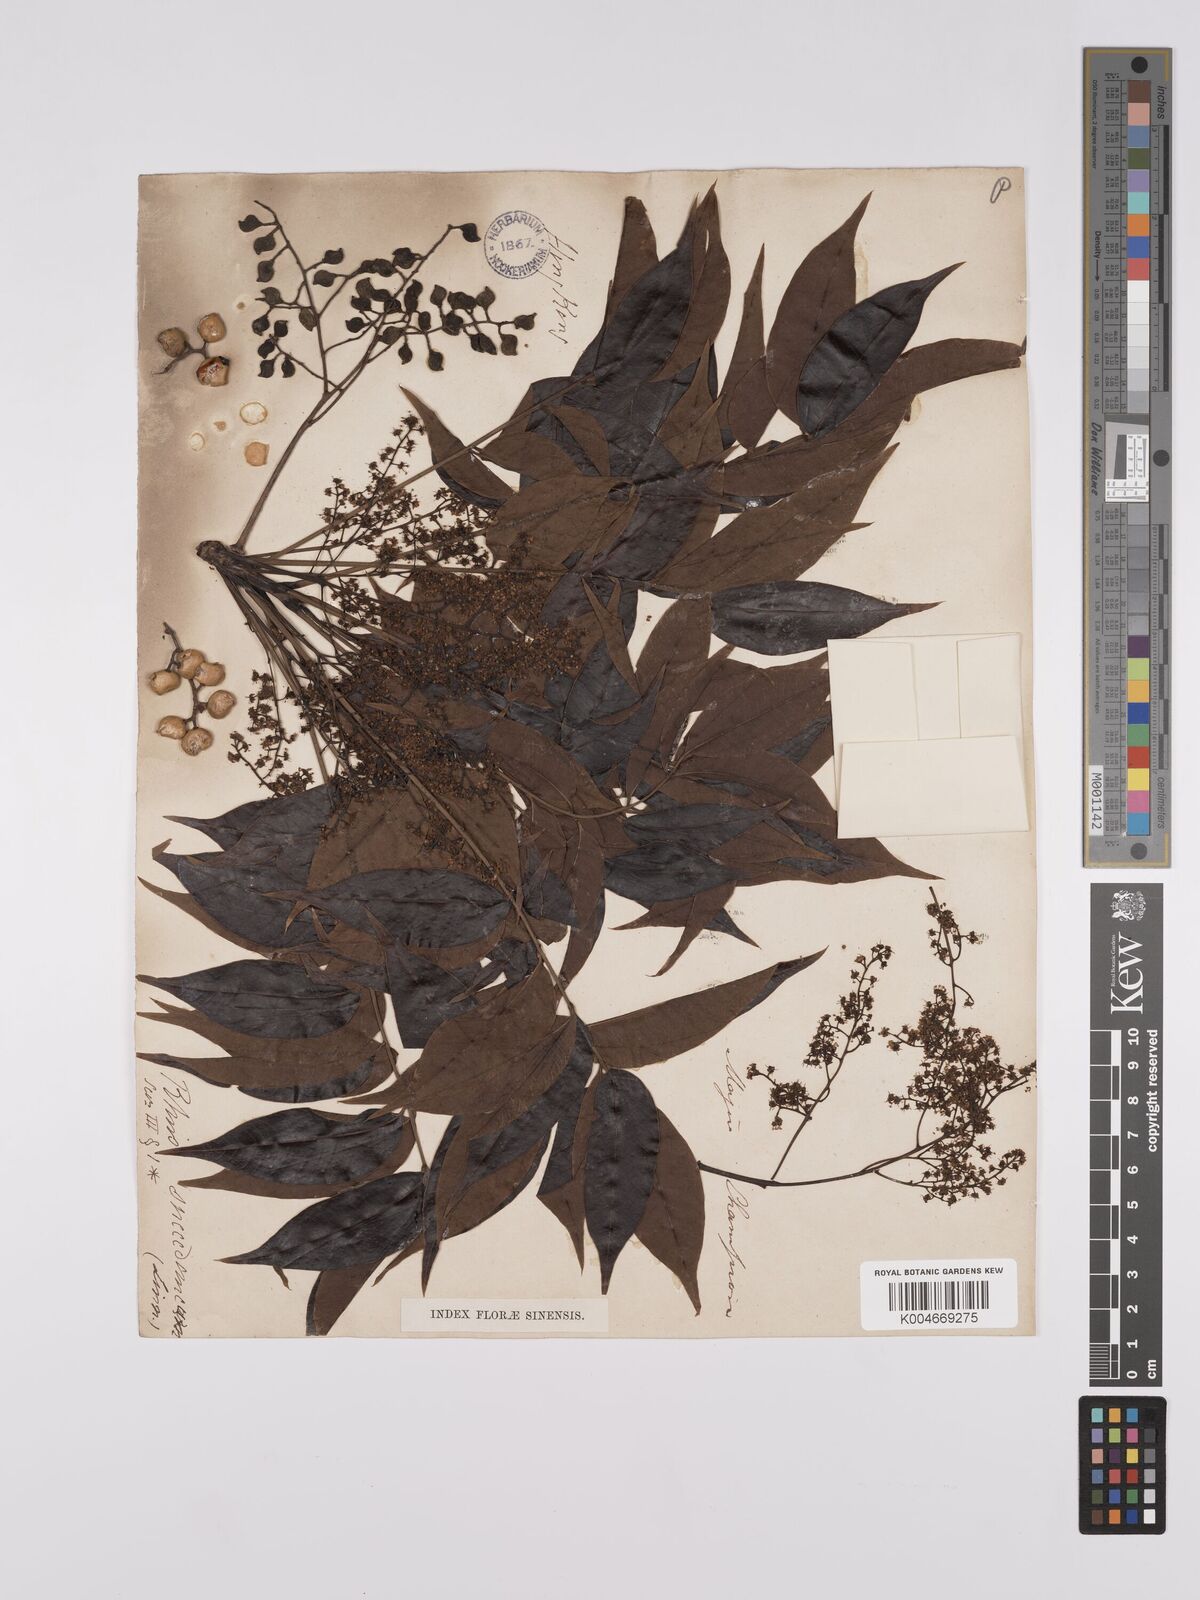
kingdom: Plantae
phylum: Tracheophyta
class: Magnoliopsida
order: Sapindales
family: Anacardiaceae
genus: Toxicodendron
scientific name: Toxicodendron succedaneum
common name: Wax tree
